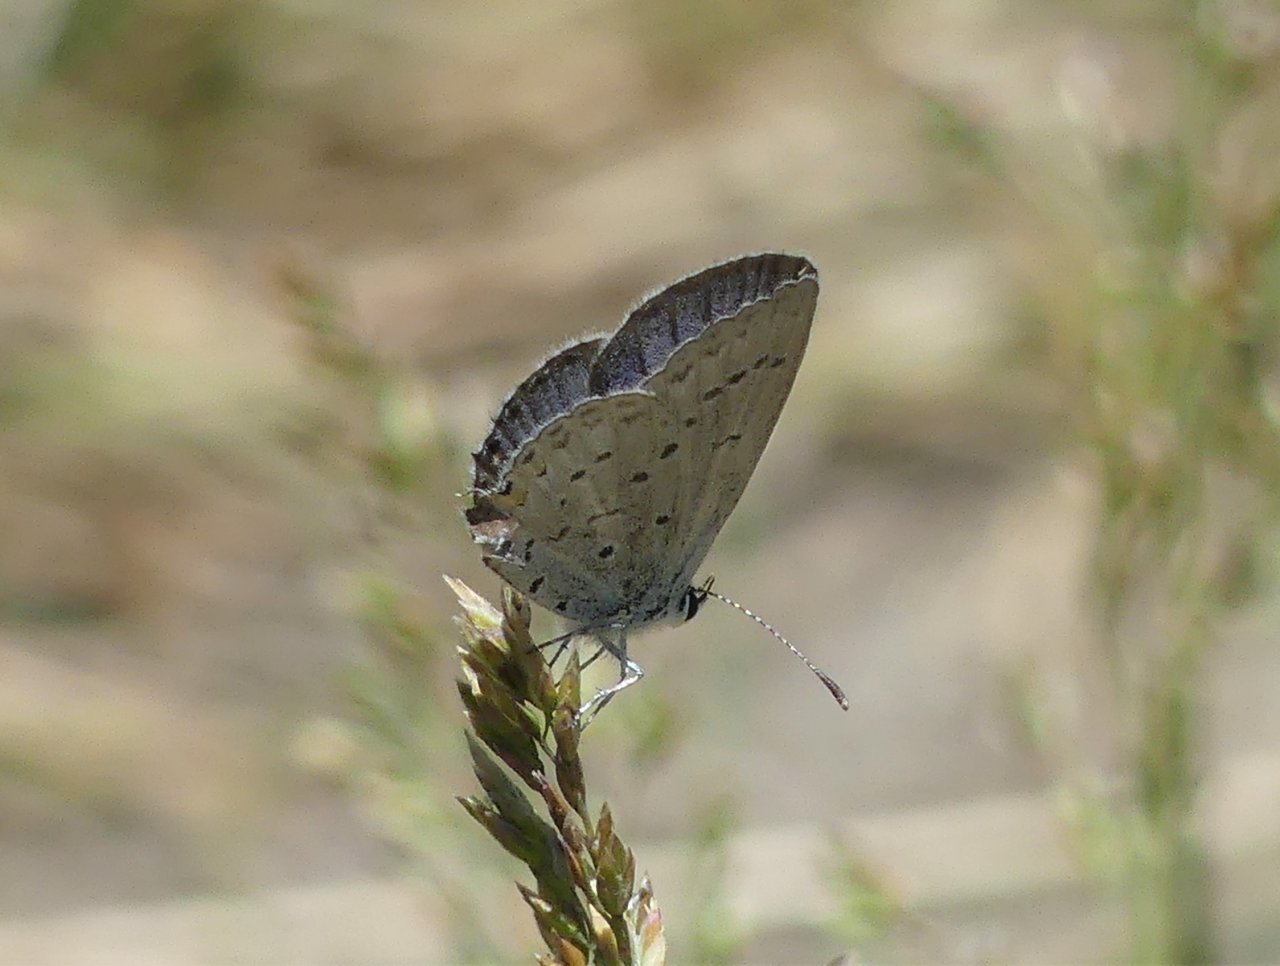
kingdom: Animalia
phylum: Arthropoda
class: Insecta
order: Lepidoptera
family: Lycaenidae
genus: Elkalyce
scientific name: Elkalyce comyntas
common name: Eastern Tailed-Blue
